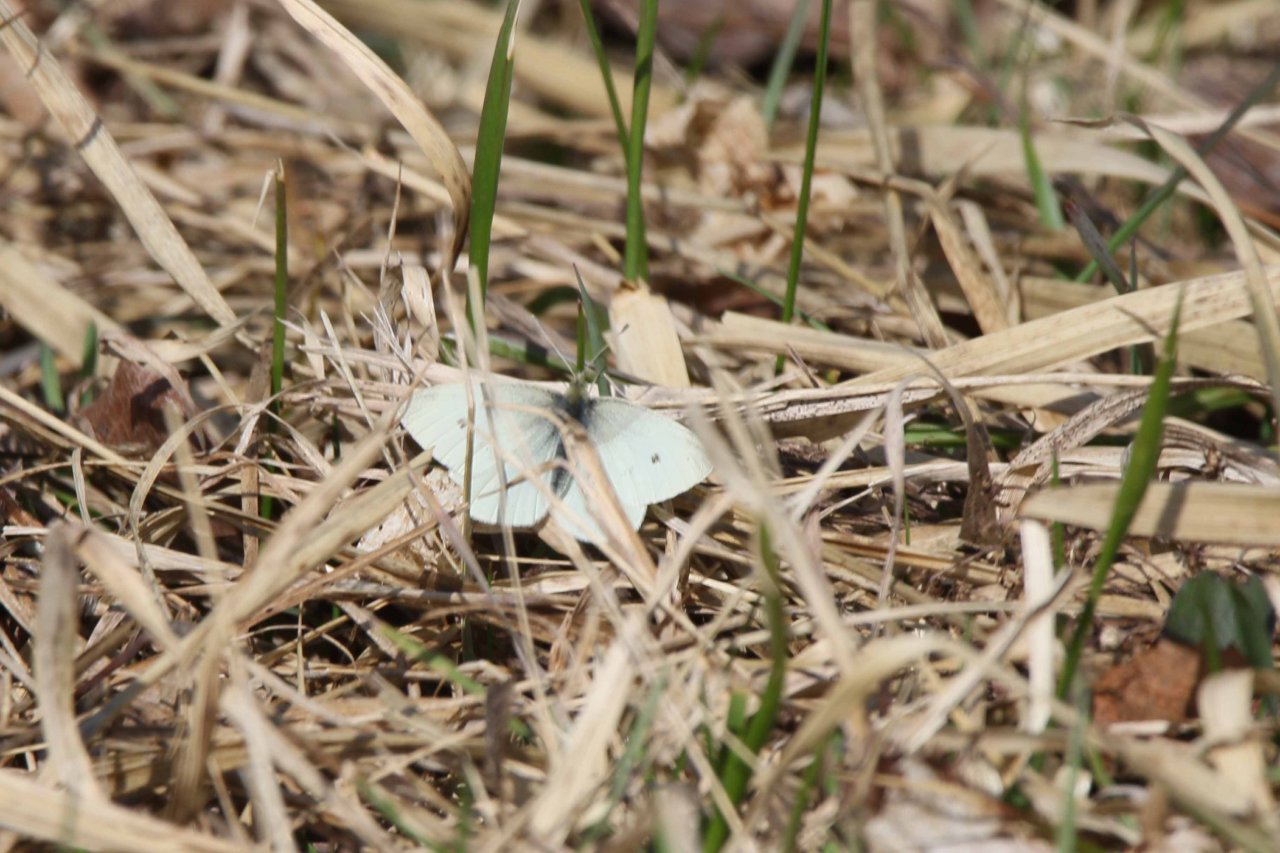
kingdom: Animalia
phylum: Arthropoda
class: Insecta
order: Lepidoptera
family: Pieridae
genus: Pieris
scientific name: Pieris rapae
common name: Cabbage White
